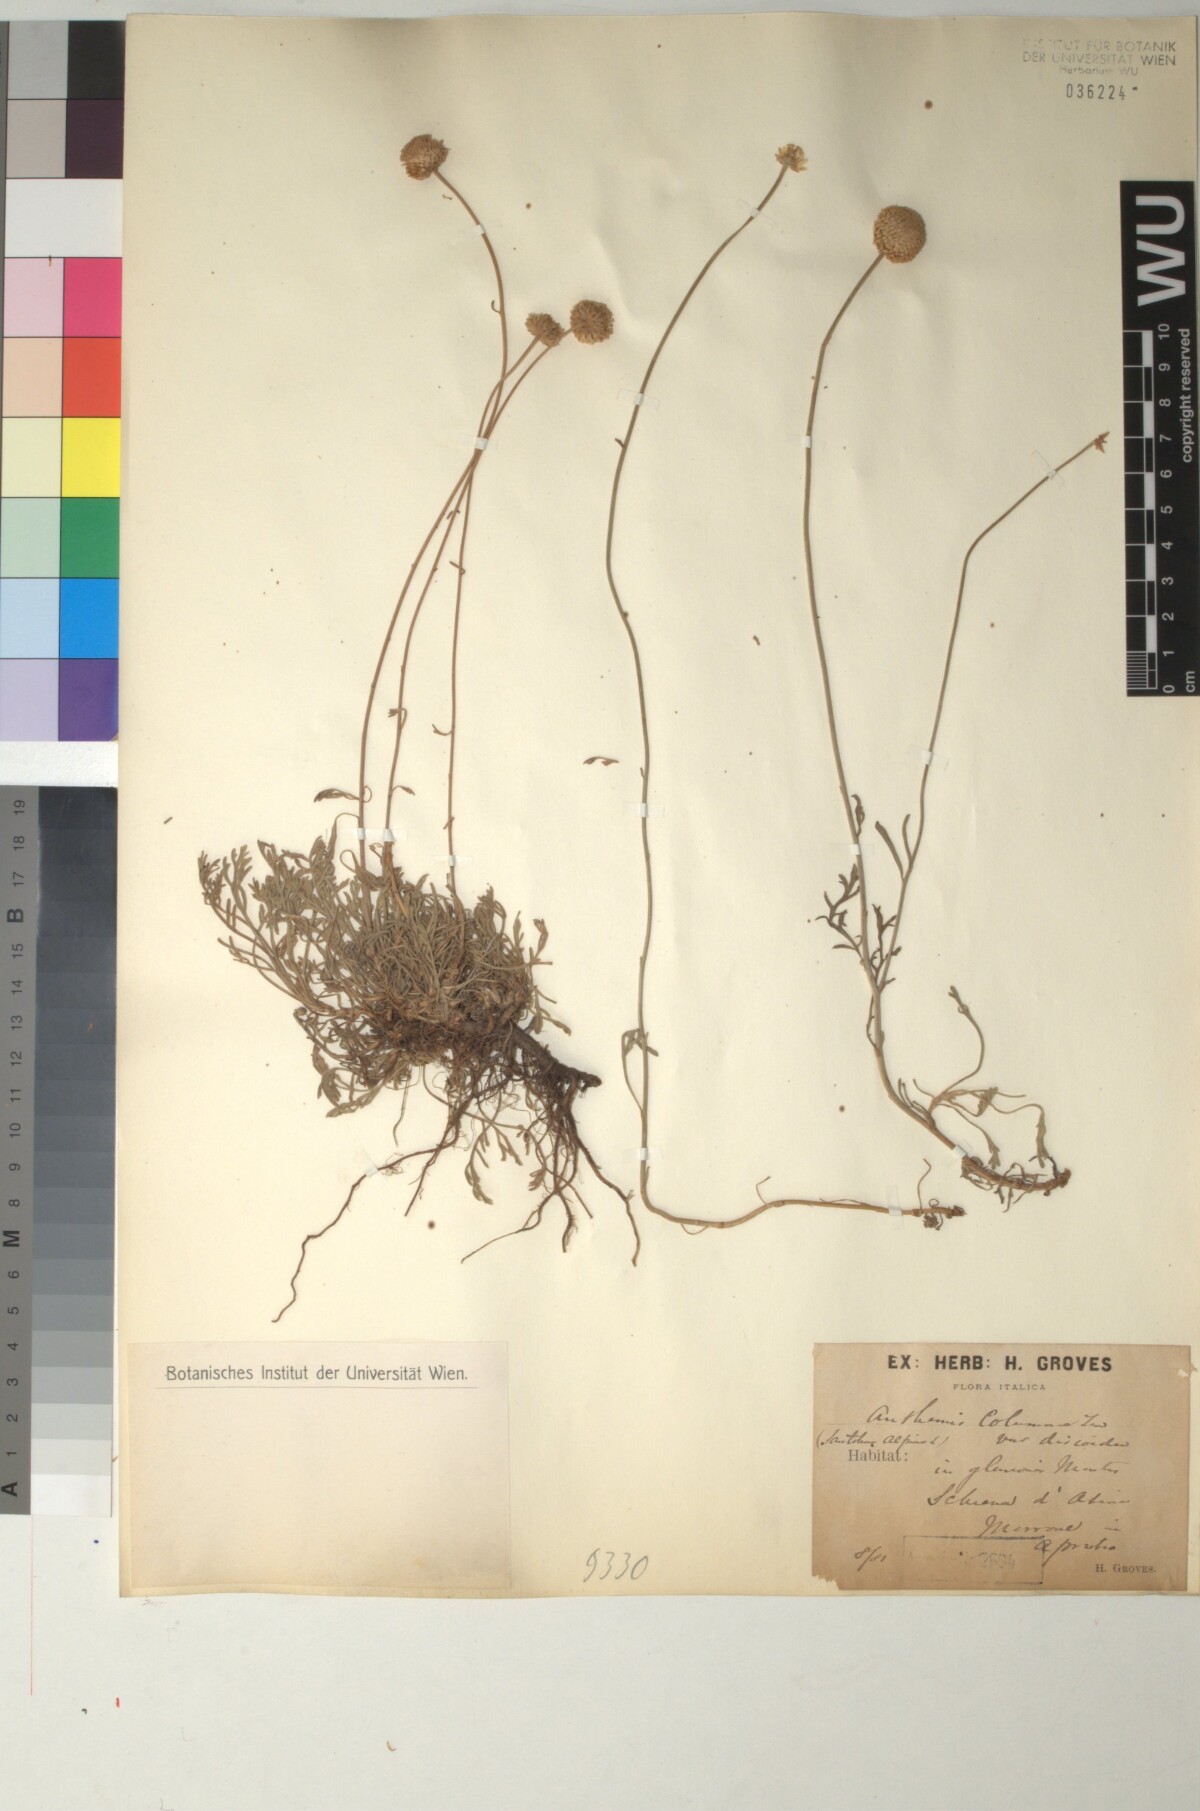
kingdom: Plantae
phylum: Tracheophyta
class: Magnoliopsida
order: Asterales
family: Asteraceae
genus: Anthemis
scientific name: Anthemis cretica
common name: Mountain dog-daisy
